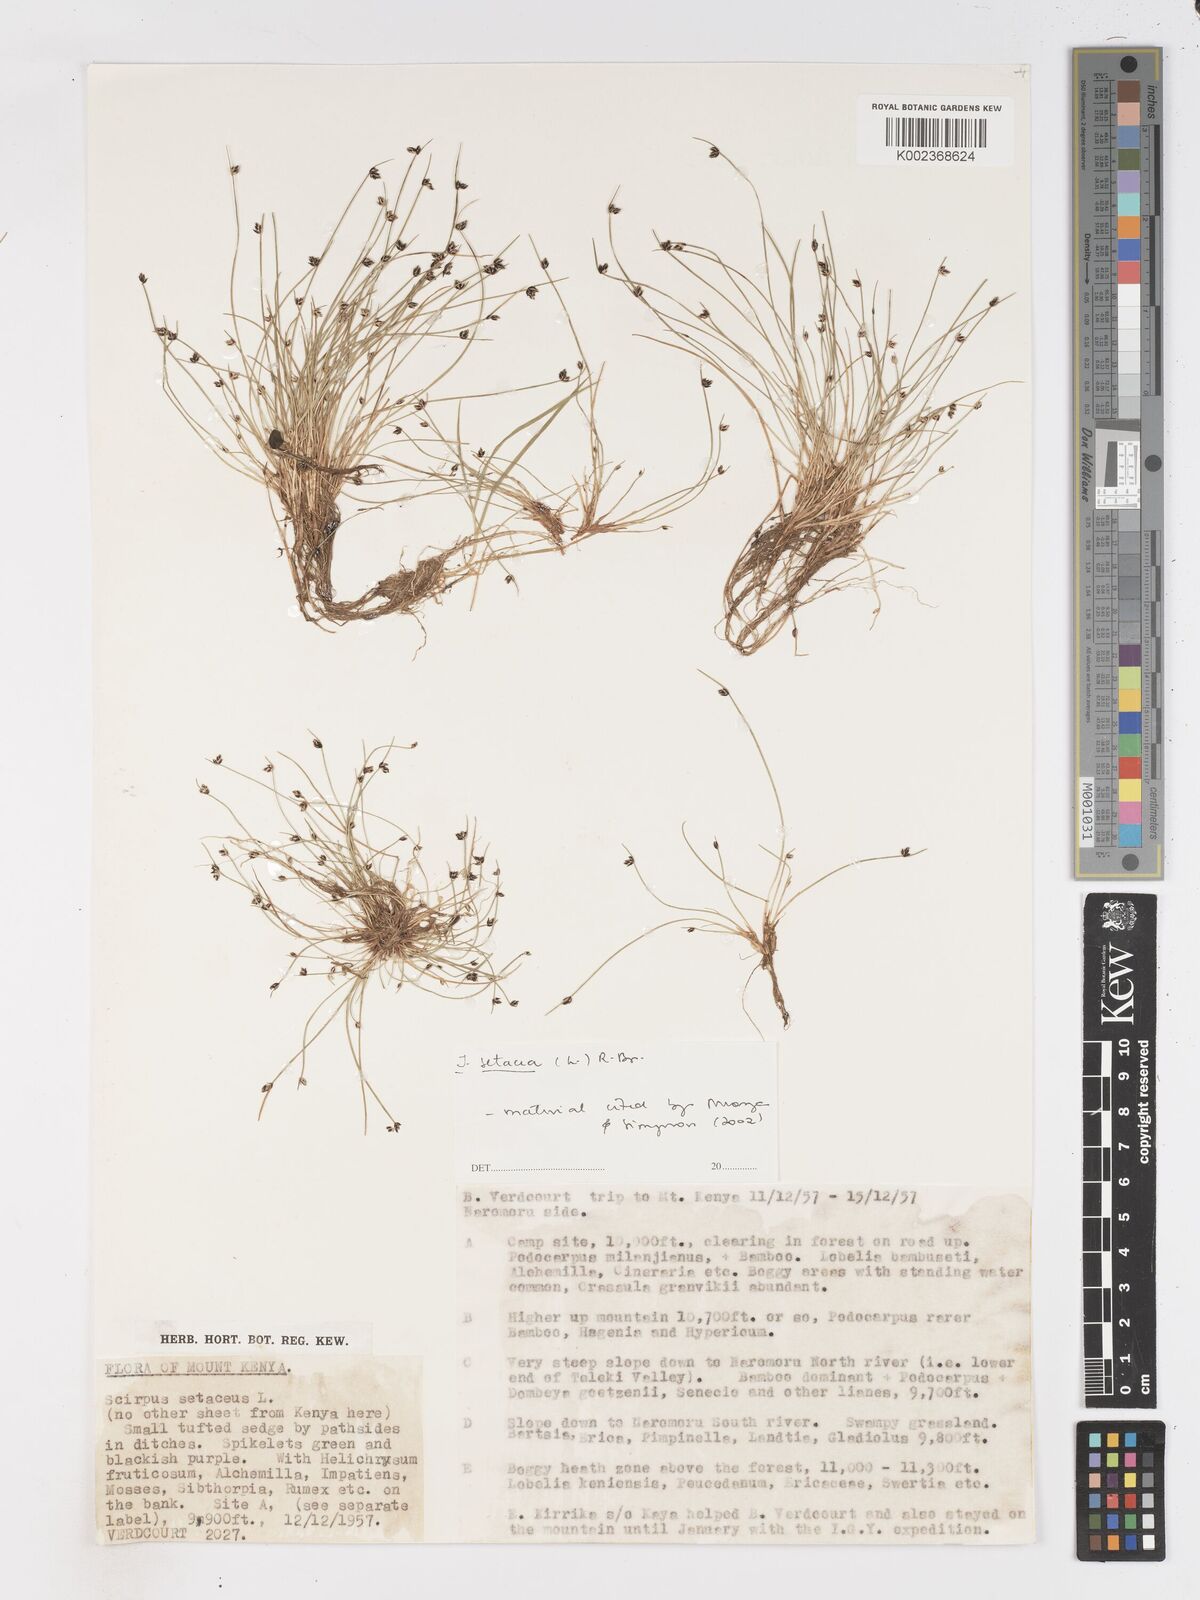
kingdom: Plantae
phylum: Tracheophyta
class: Liliopsida
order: Poales
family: Cyperaceae
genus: Isolepis
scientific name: Isolepis setacea
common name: Bristle club-rush
